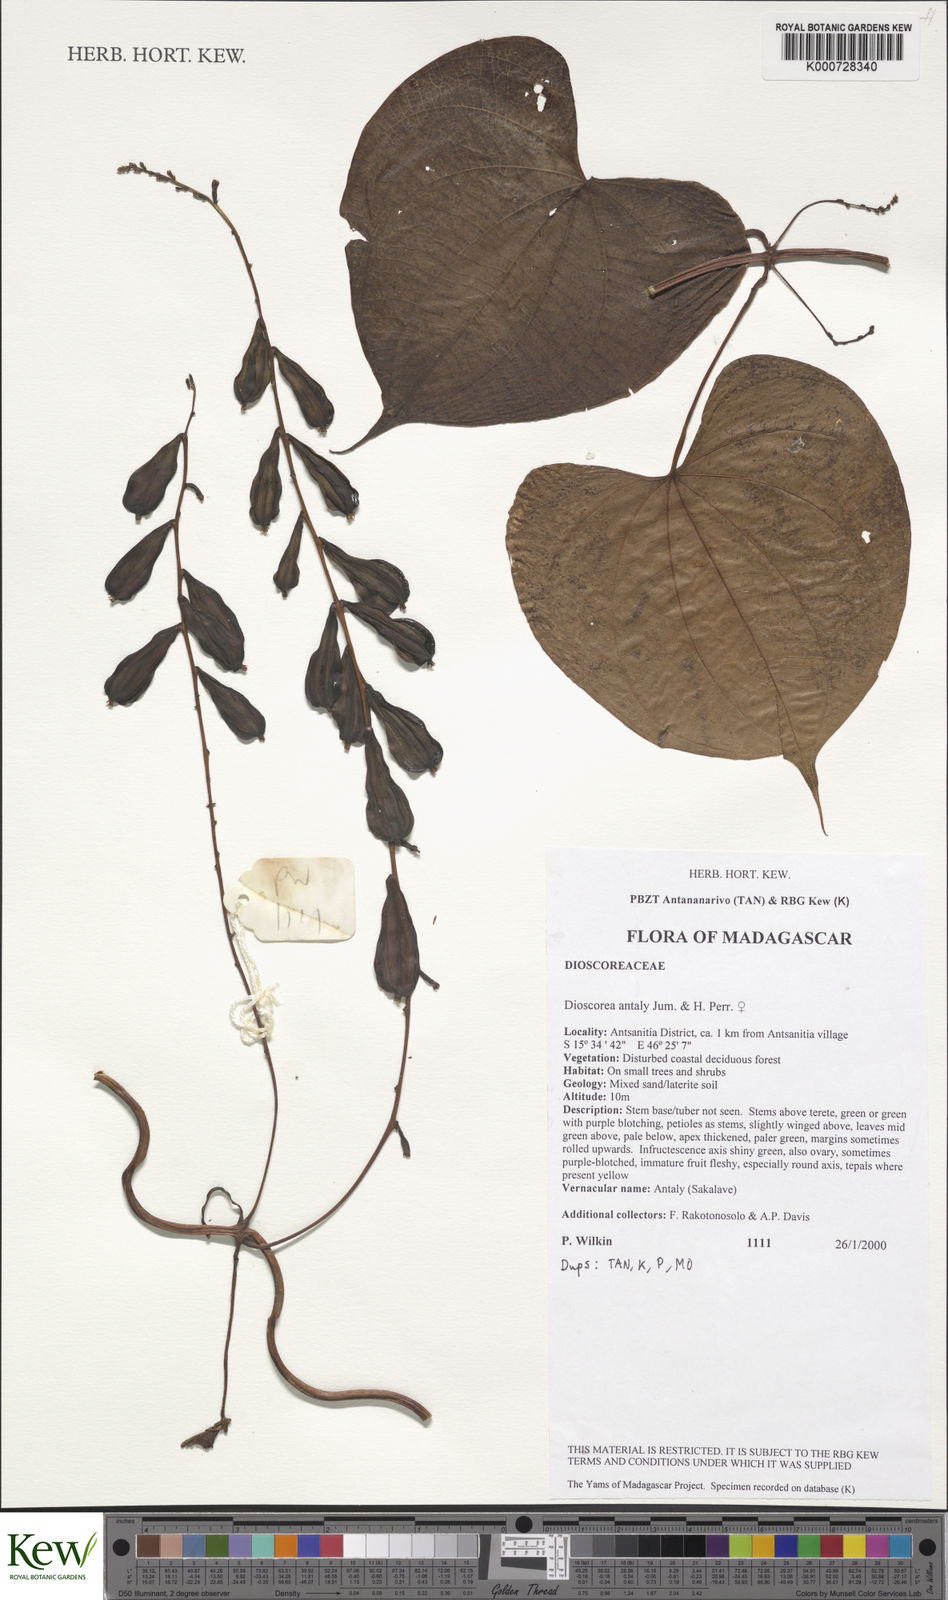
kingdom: Plantae
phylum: Tracheophyta
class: Liliopsida
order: Dioscoreales
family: Dioscoreaceae
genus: Dioscorea
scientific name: Dioscorea antaly
